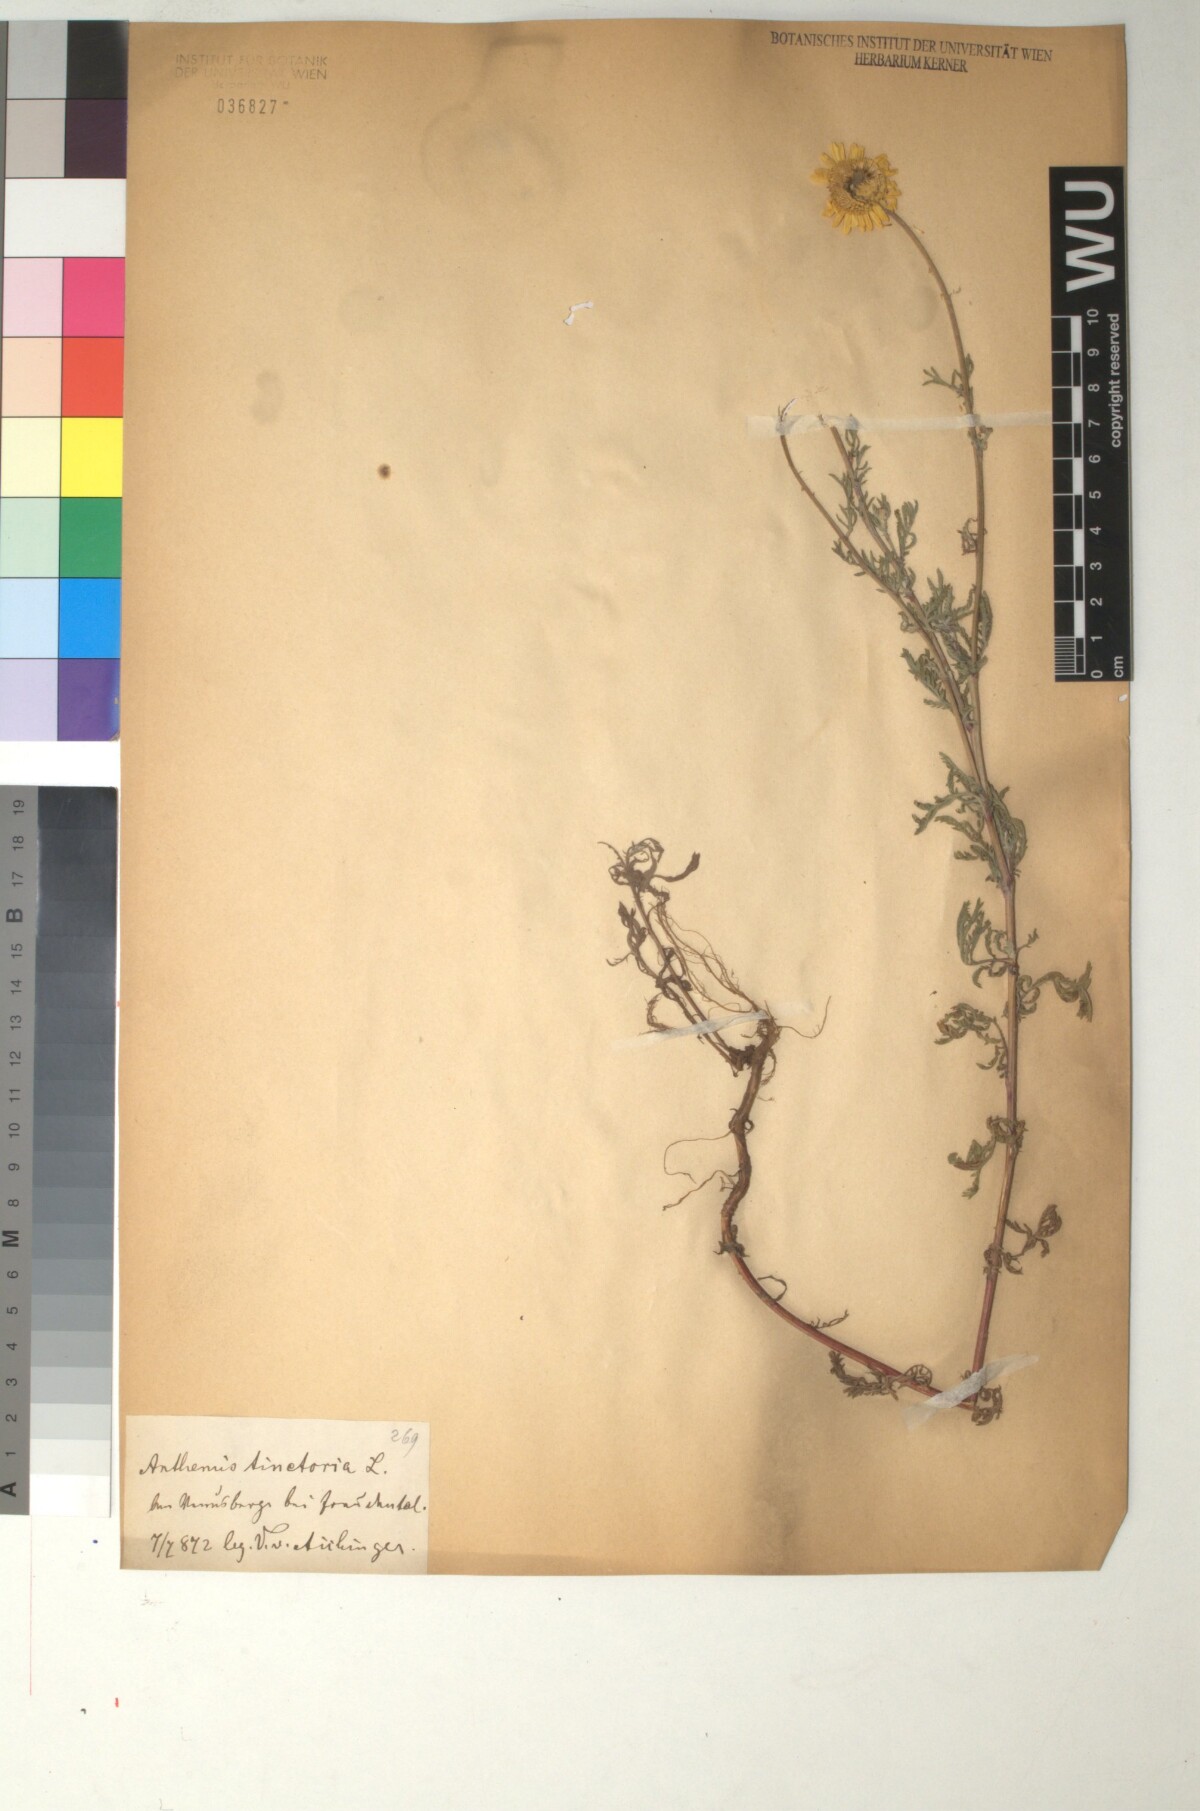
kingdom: Plantae
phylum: Tracheophyta
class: Magnoliopsida
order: Asterales
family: Asteraceae
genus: Cota
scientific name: Cota tinctoria
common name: Golden chamomile
